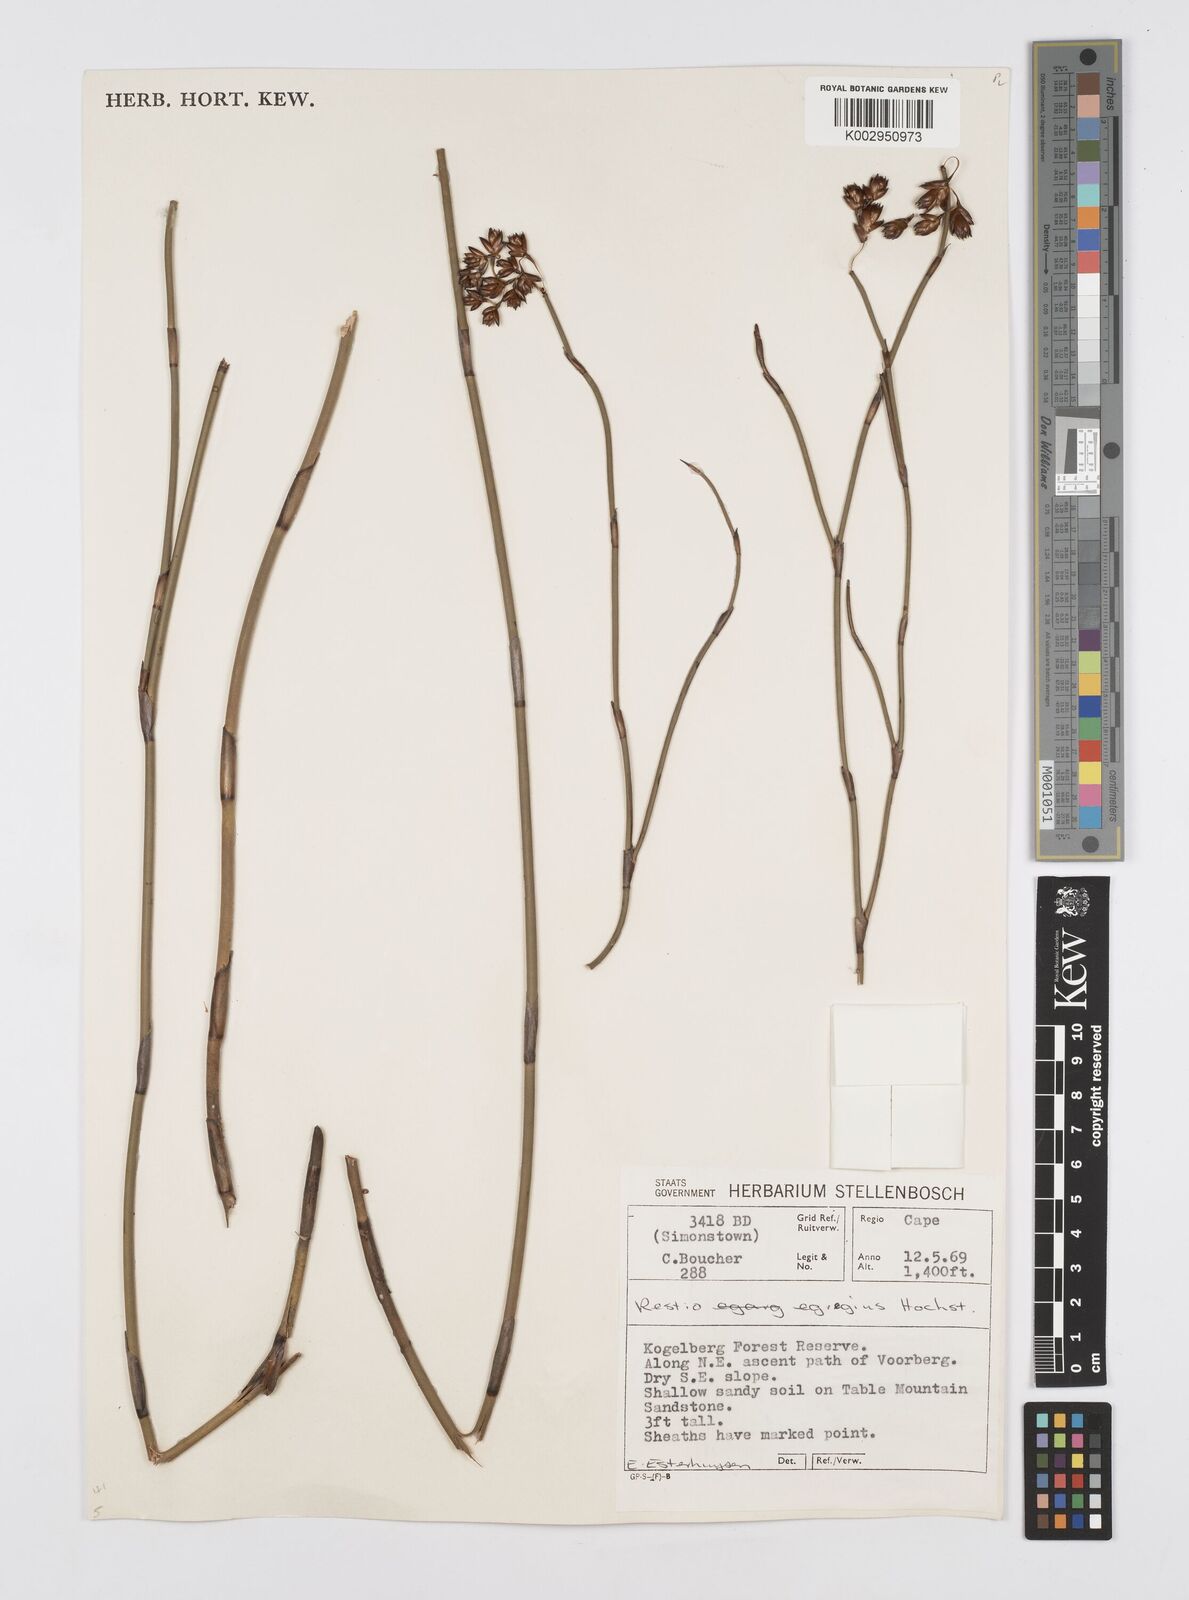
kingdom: Plantae
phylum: Tracheophyta
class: Liliopsida
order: Poales
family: Restionaceae
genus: Restio
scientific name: Restio egregius
